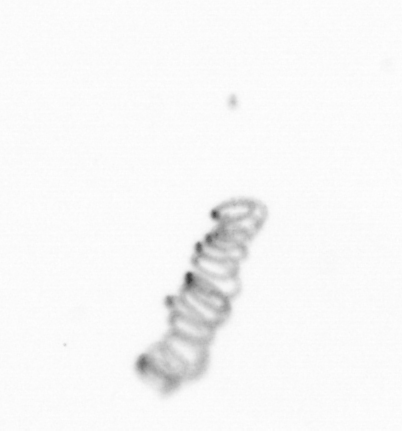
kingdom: Chromista
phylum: Ochrophyta
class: Bacillariophyceae
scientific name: Bacillariophyceae
